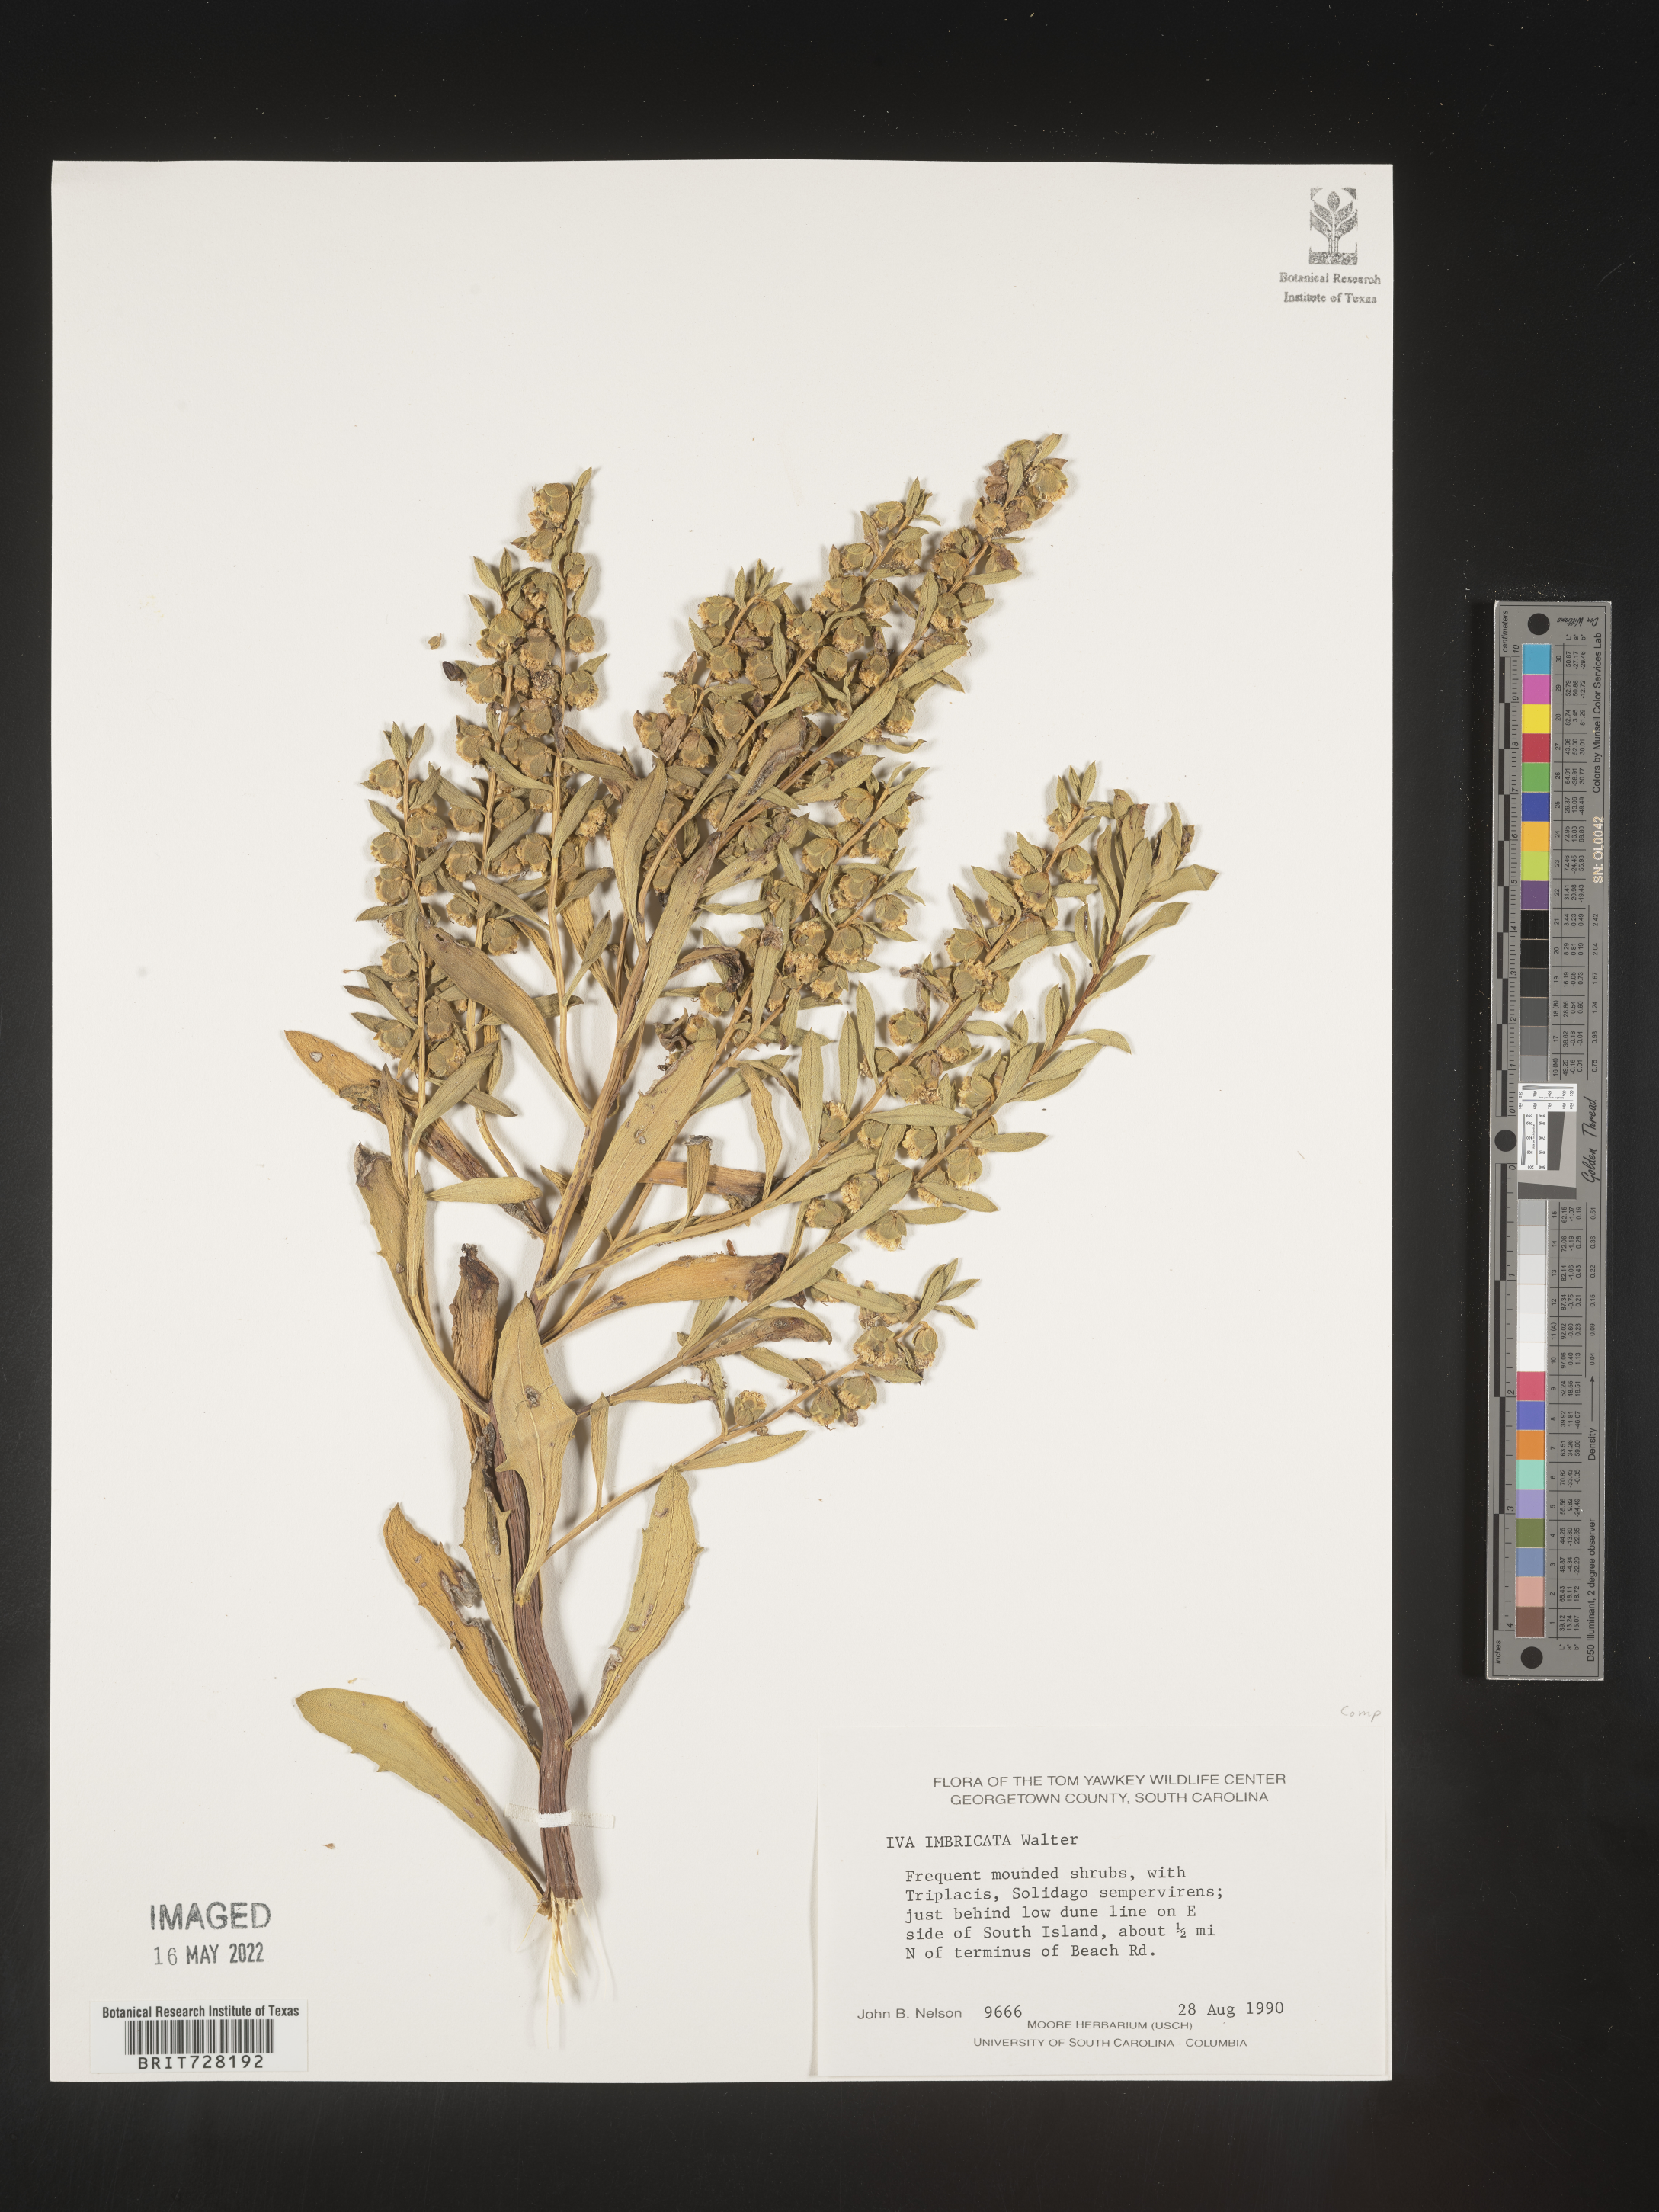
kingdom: Plantae
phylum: Tracheophyta
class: Magnoliopsida
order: Asterales
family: Asteraceae
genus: Iva
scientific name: Iva imbricata
